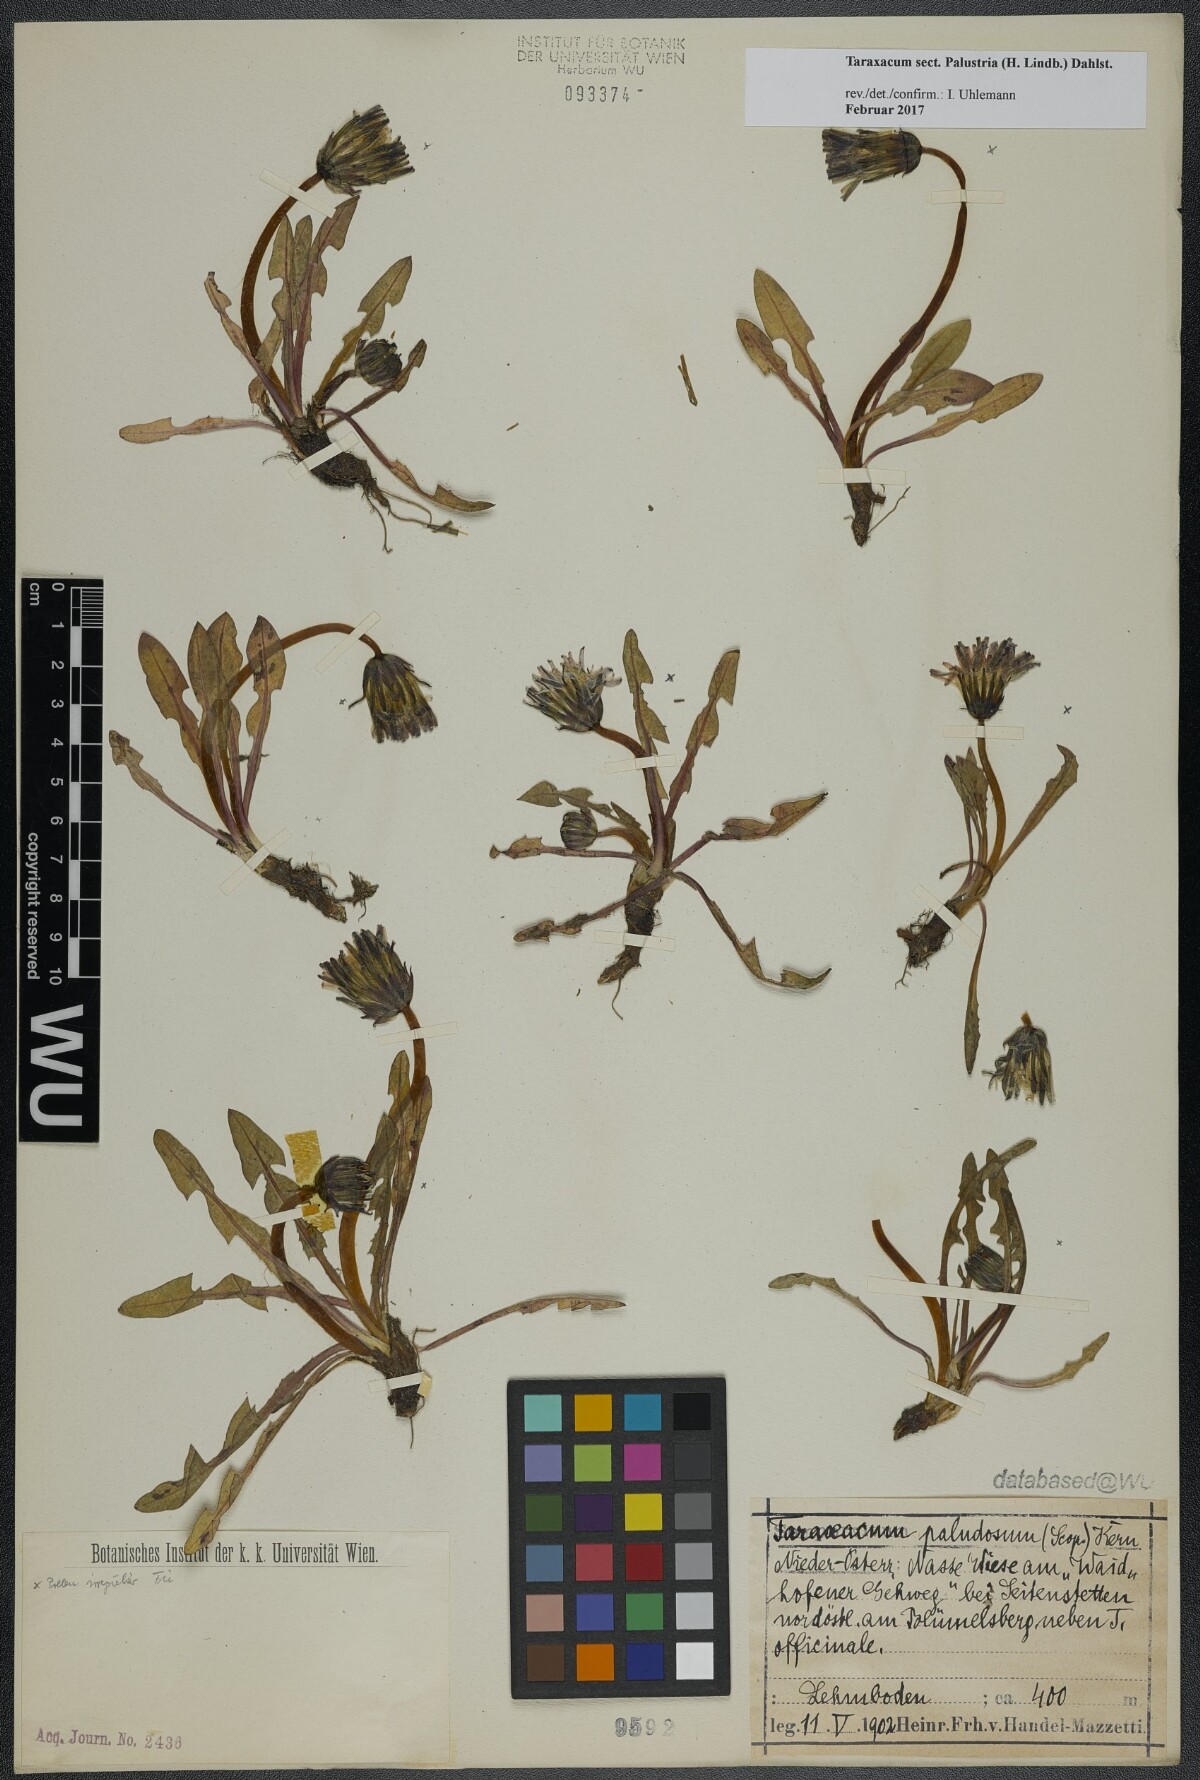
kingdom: Plantae
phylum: Tracheophyta
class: Magnoliopsida
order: Asterales
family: Asteraceae
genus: Taraxacum
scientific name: Taraxacum
